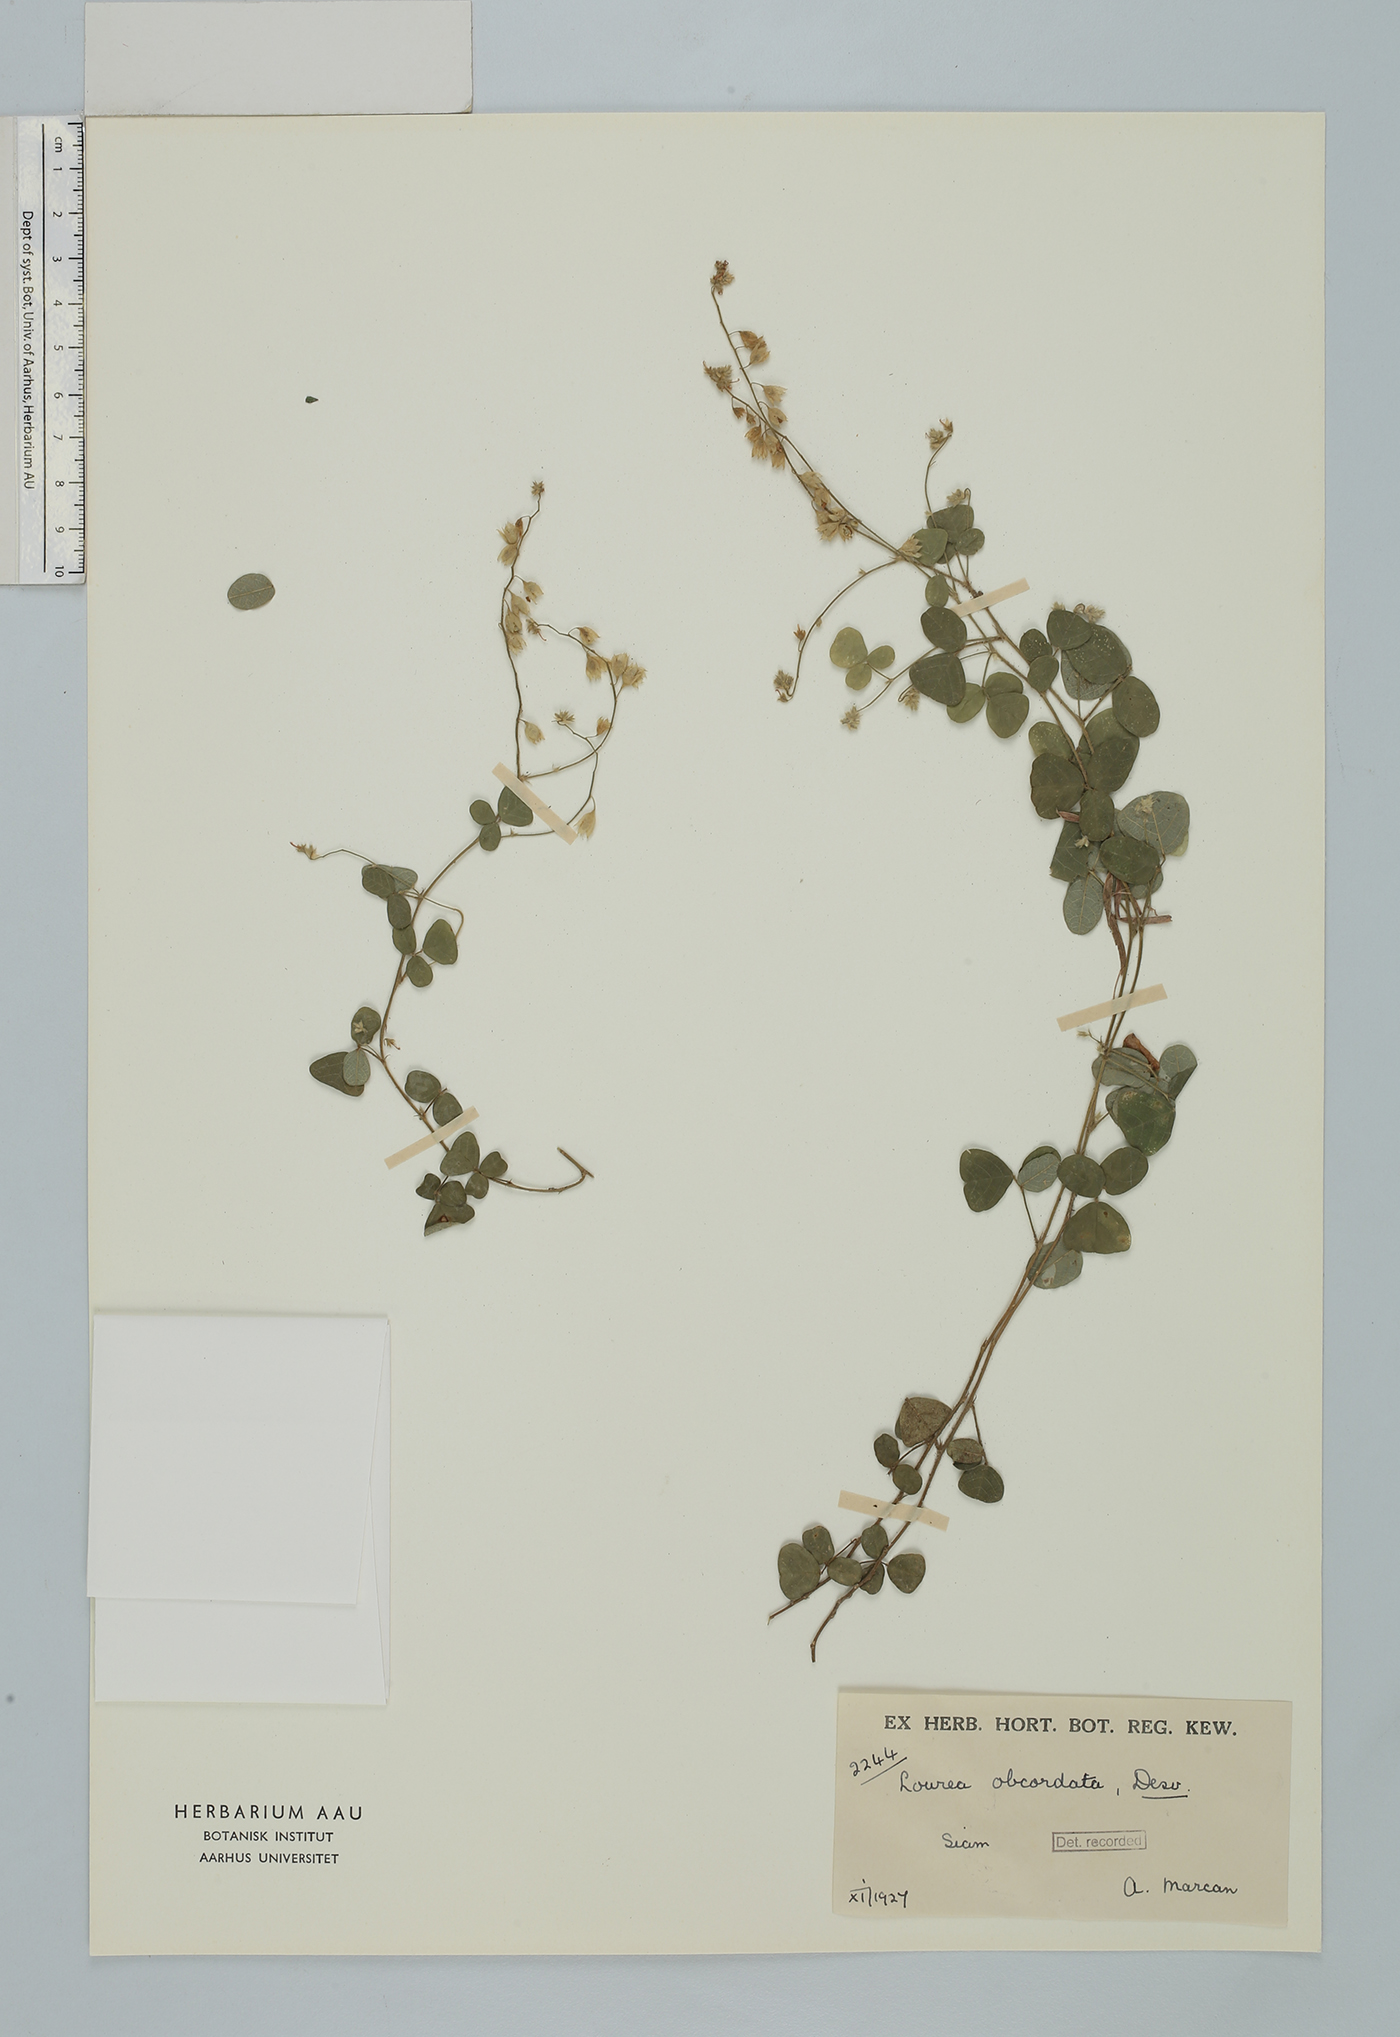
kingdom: Plantae
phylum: Tracheophyta
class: Magnoliopsida
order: Fabales
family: Fabaceae
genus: Christia
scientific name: Christia obcordata
